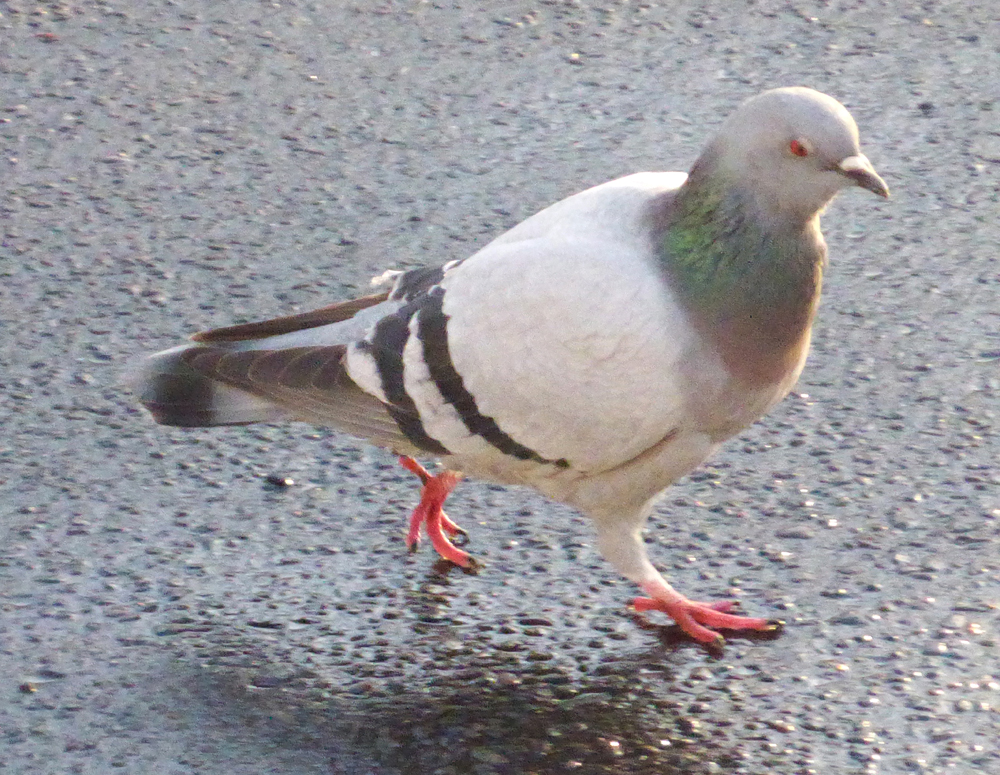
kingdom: Animalia
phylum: Chordata
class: Aves
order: Columbiformes
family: Columbidae
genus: Columba
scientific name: Columba livia
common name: Rock pigeon
